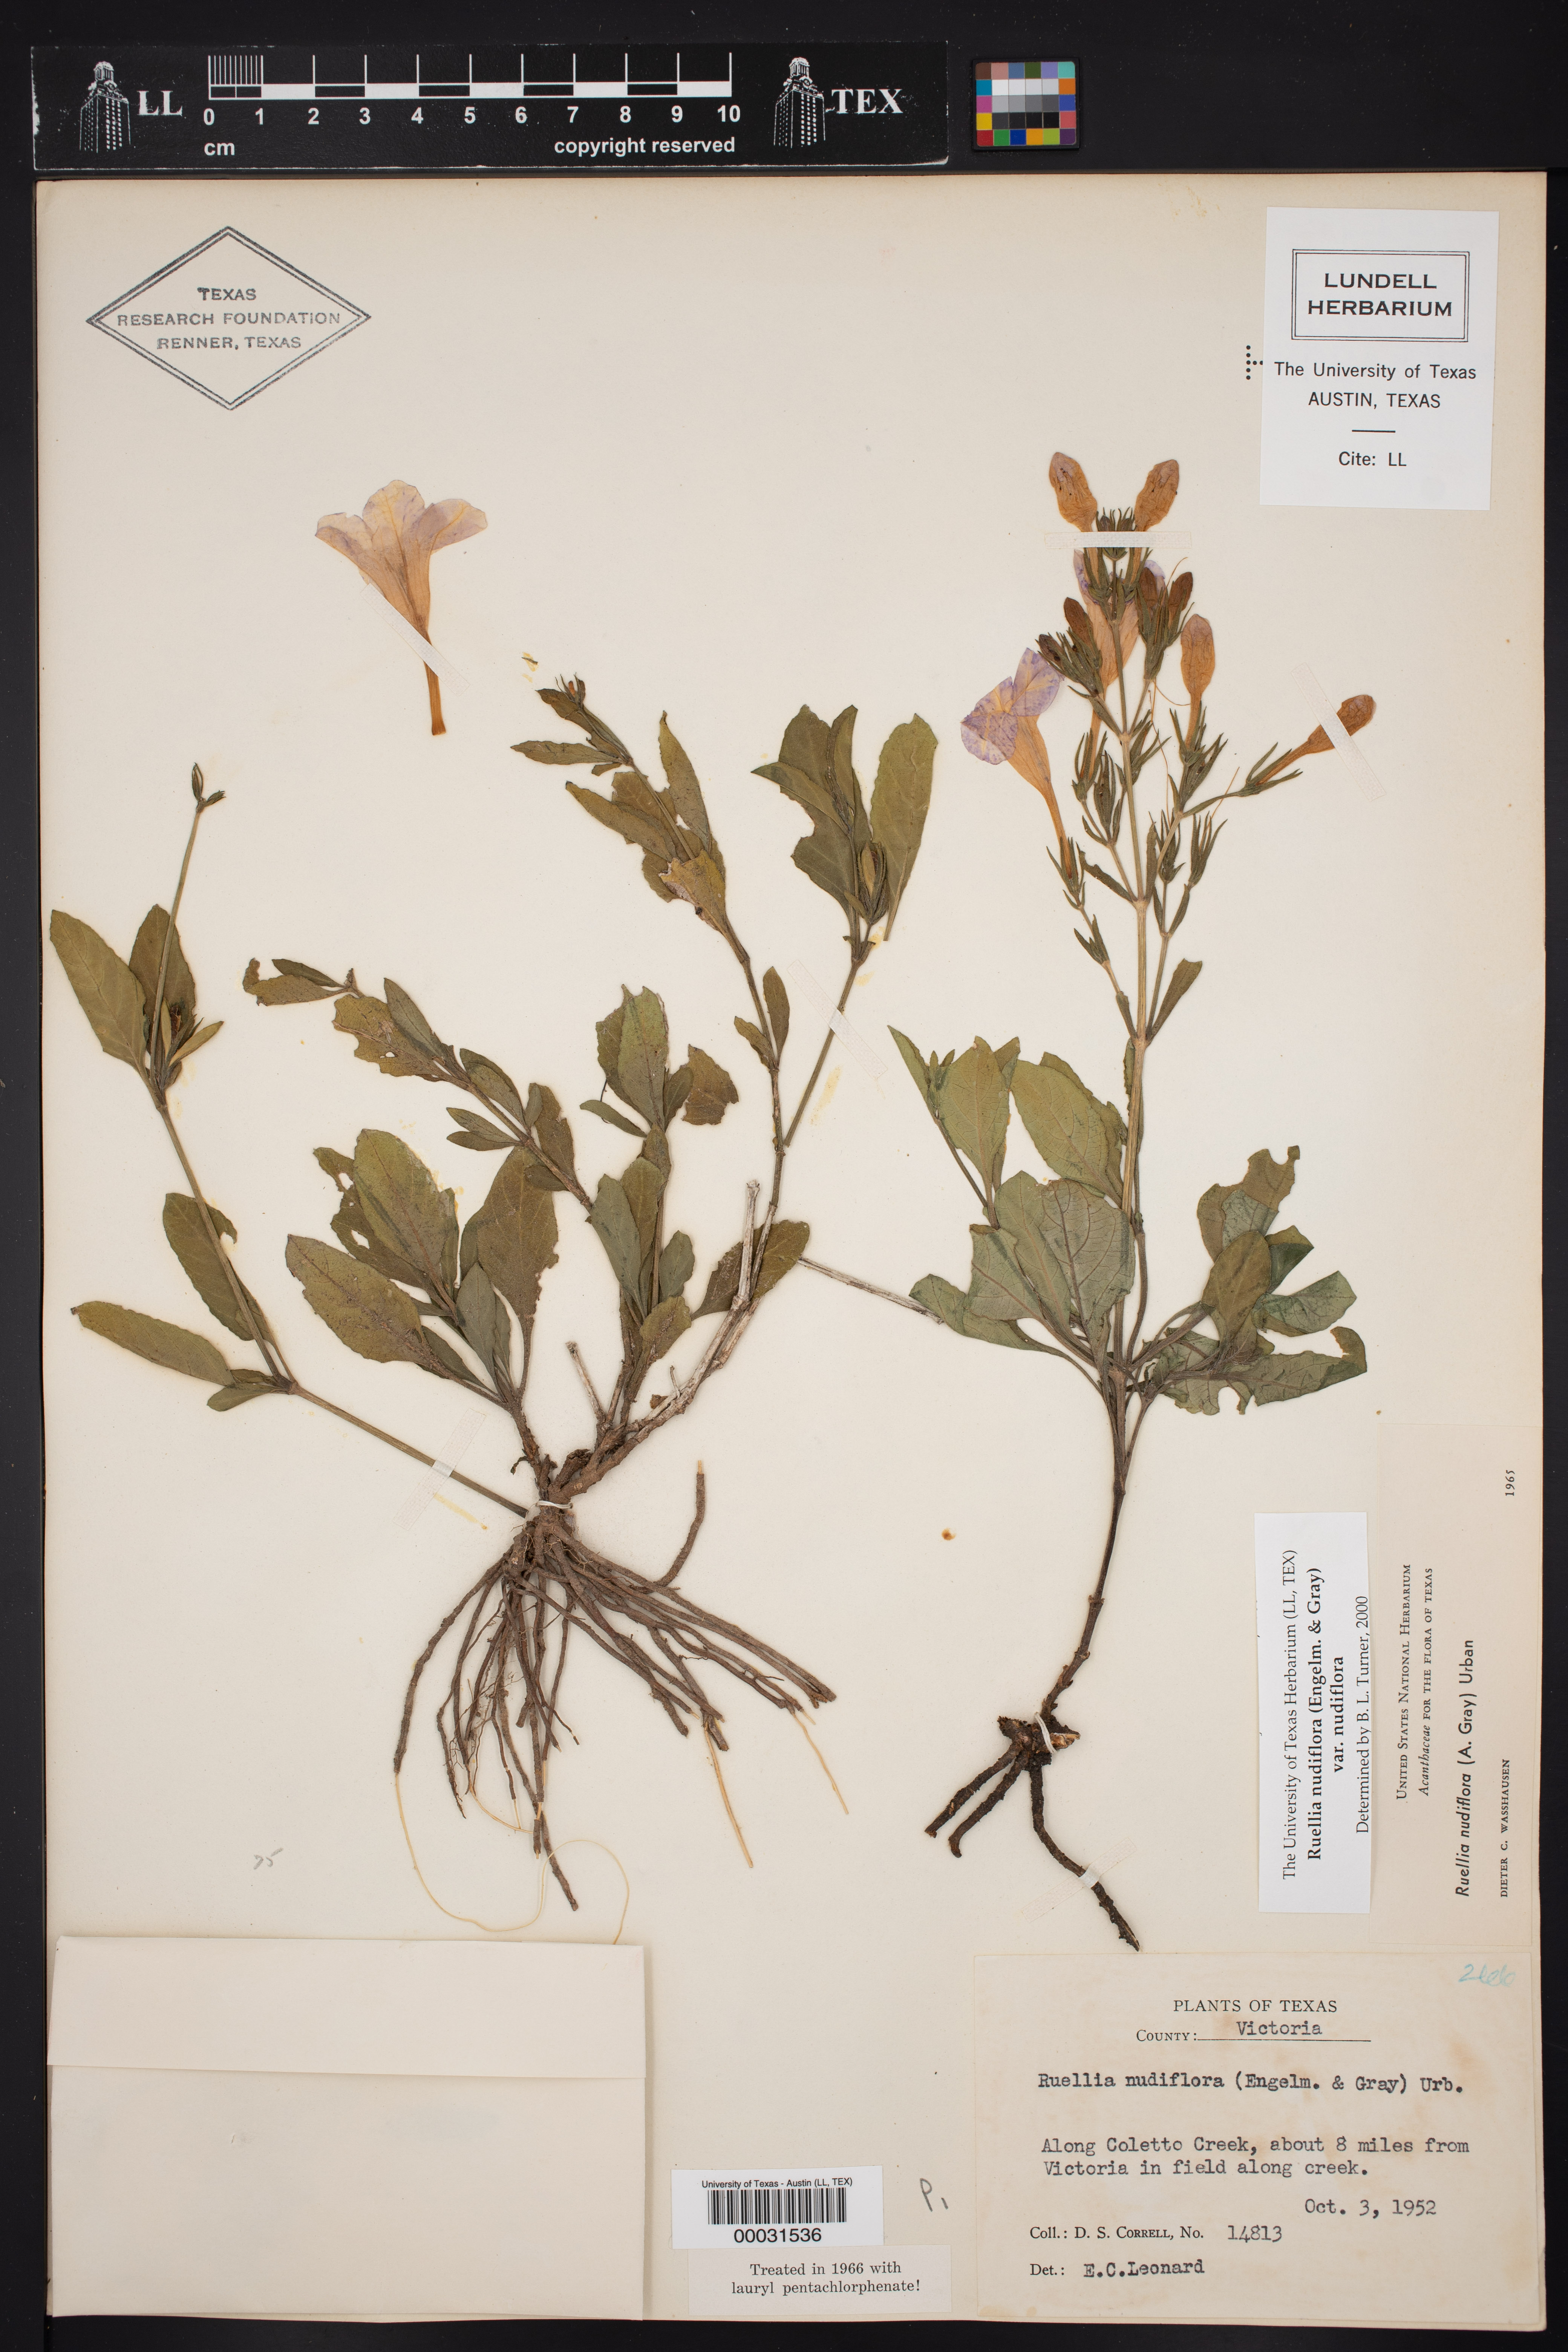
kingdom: Plantae
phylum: Tracheophyta
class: Magnoliopsida
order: Lamiales
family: Acanthaceae
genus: Ruellia
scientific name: Ruellia ciliatiflora
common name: Hairyflower wild petunia
